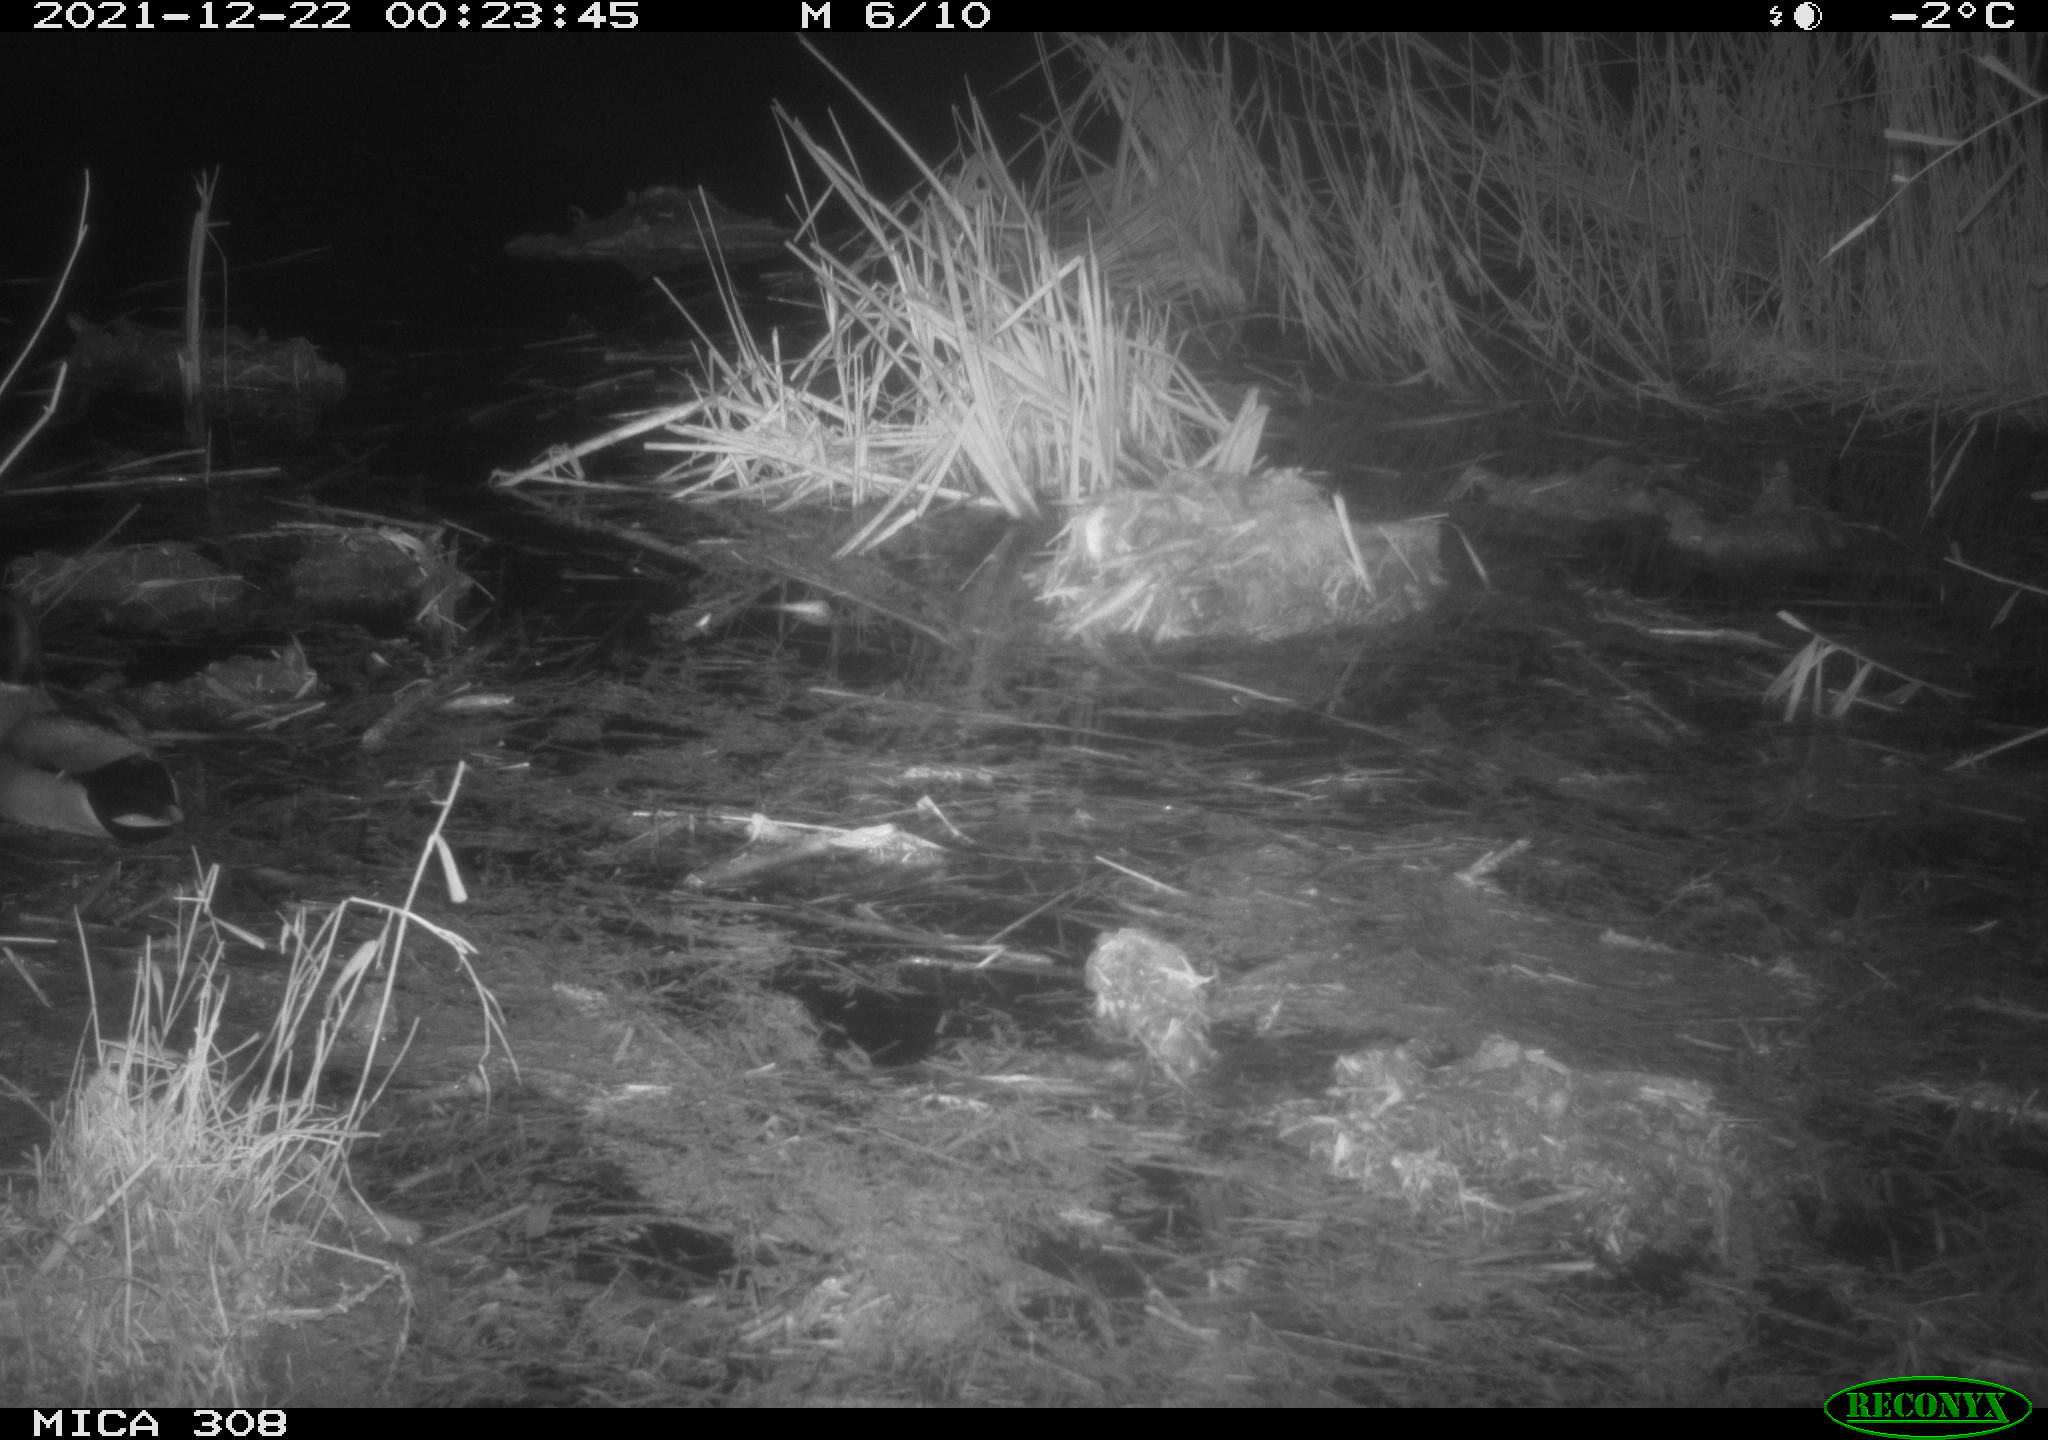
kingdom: Animalia
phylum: Chordata
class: Aves
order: Anseriformes
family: Anatidae
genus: Anas
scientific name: Anas platyrhynchos
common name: Mallard
